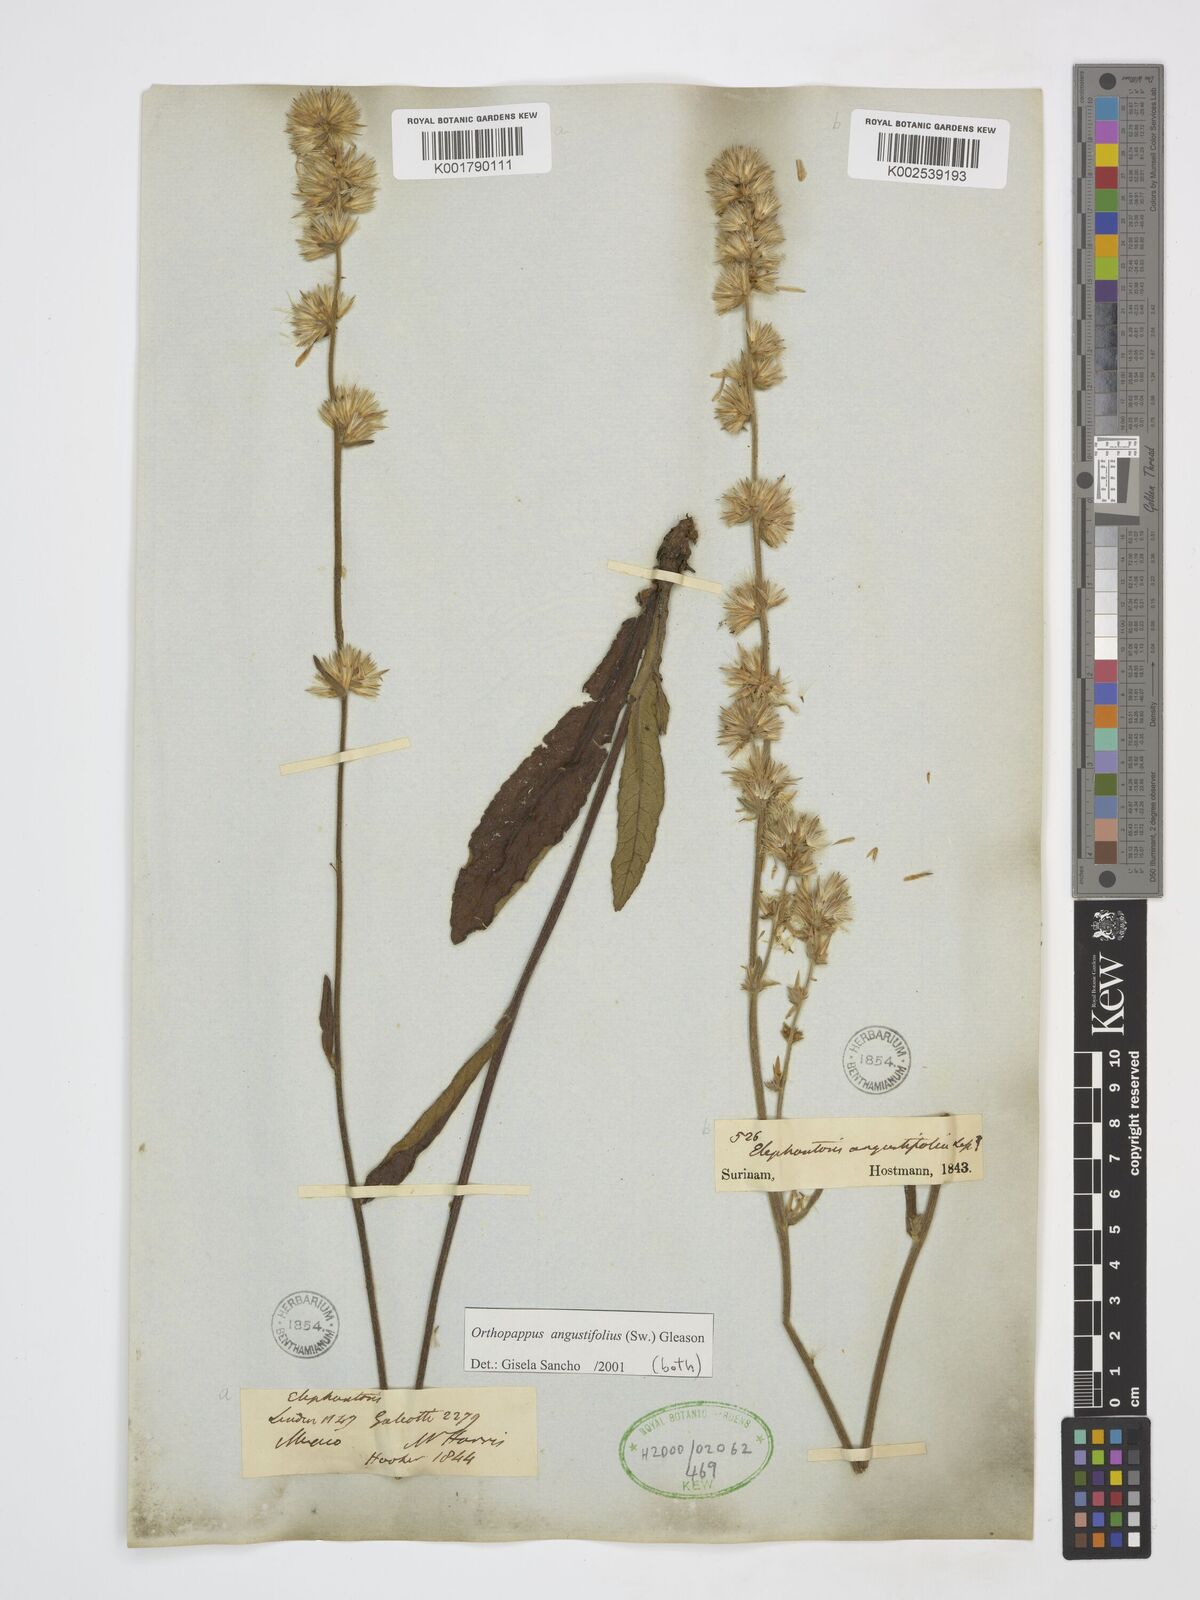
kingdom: Plantae
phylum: Tracheophyta
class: Magnoliopsida
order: Asterales
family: Asteraceae
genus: Orthopappus
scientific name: Orthopappus angustifolius
